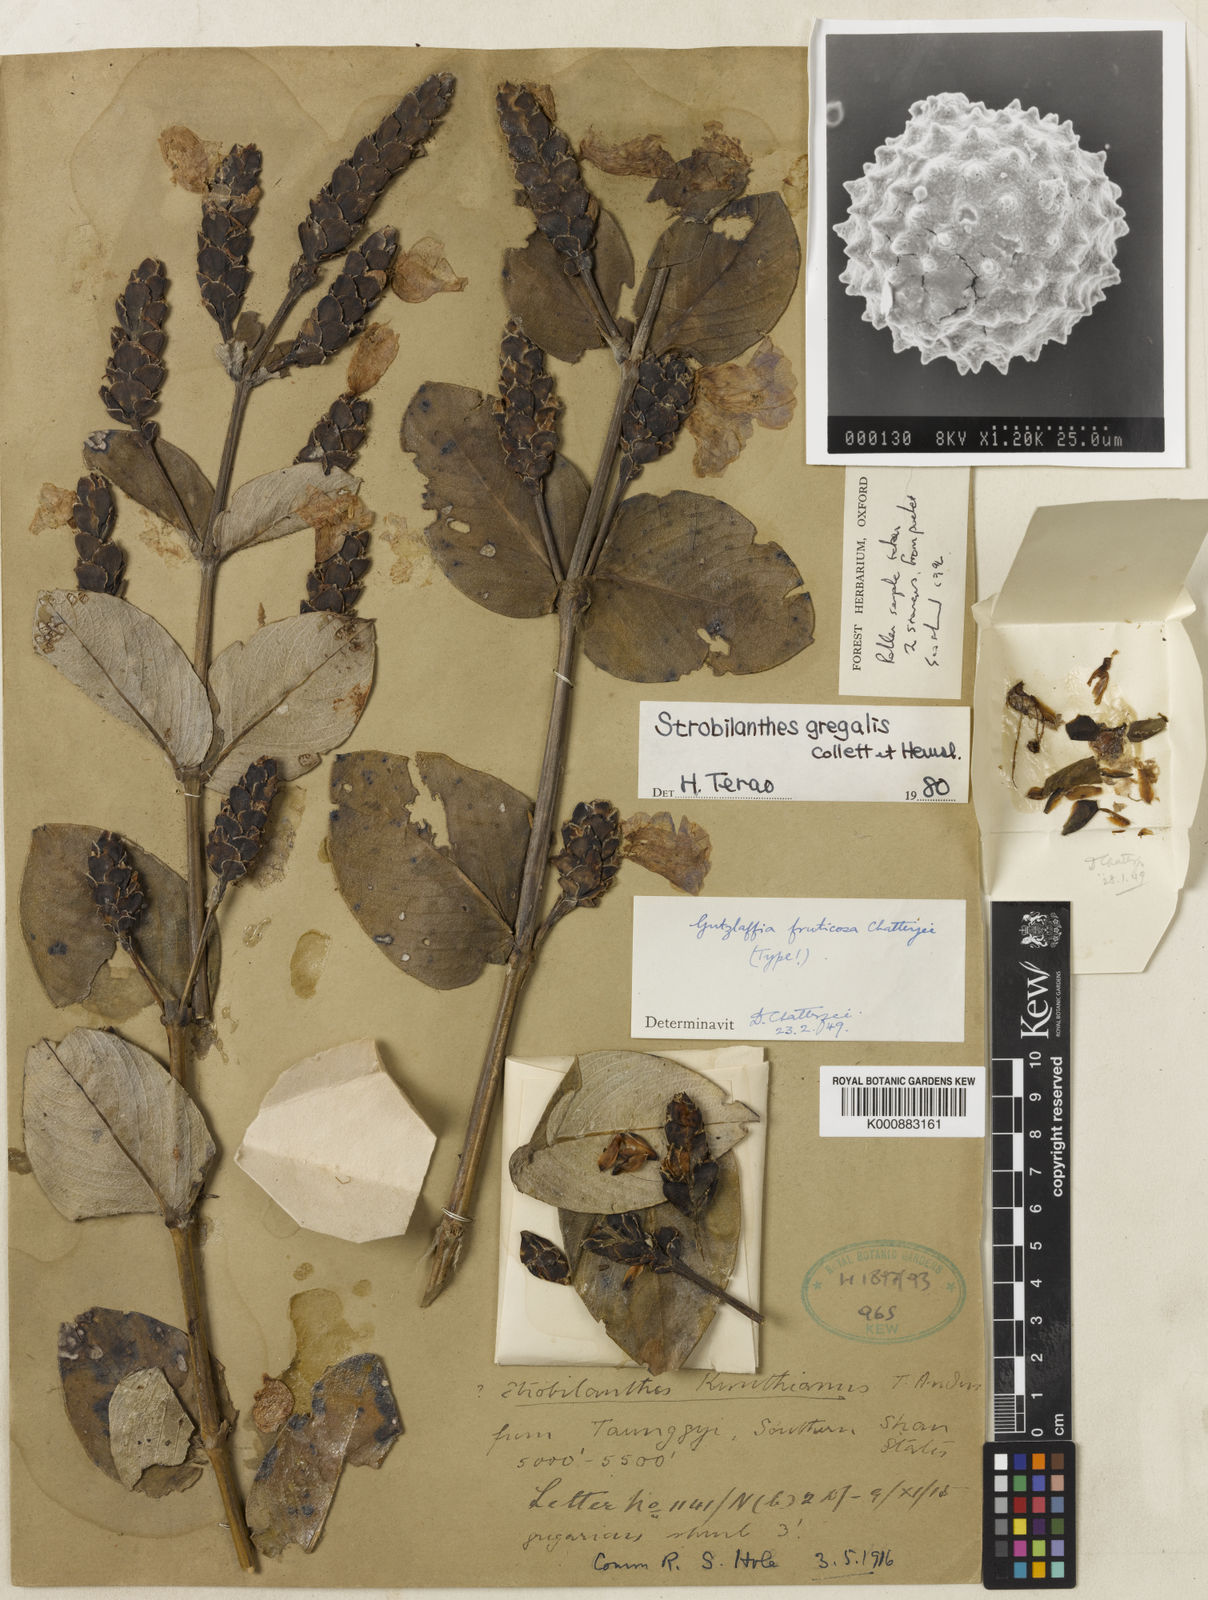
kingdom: Plantae
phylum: Tracheophyta
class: Magnoliopsida
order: Lamiales
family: Acanthaceae
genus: Strobilanthes
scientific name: Strobilanthes gregalis
